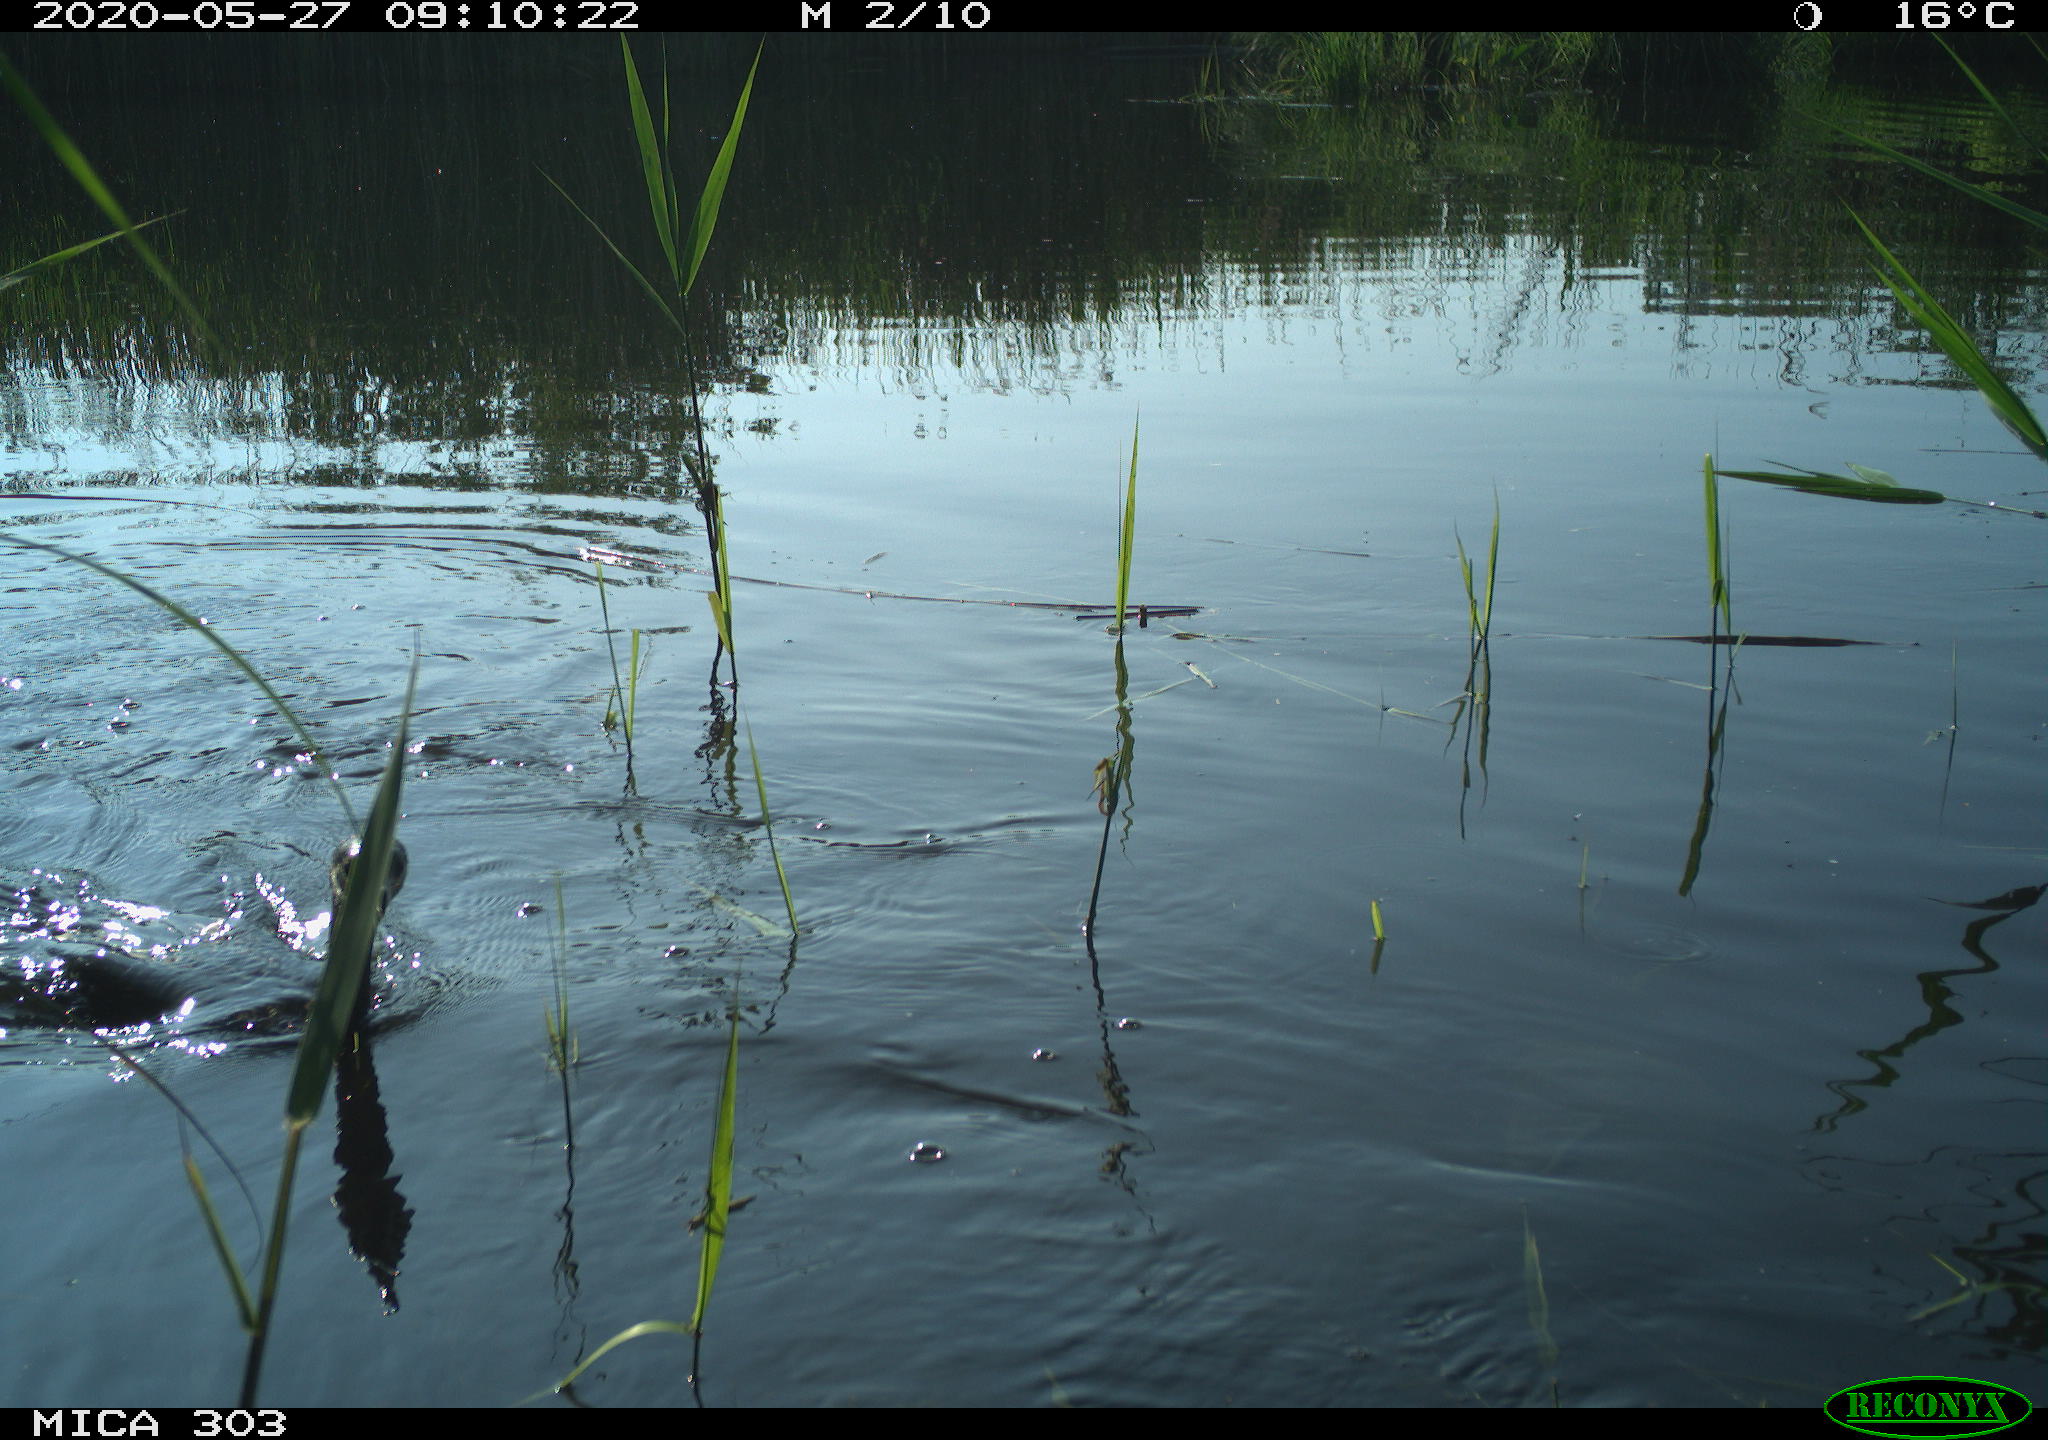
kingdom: Animalia
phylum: Chordata
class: Aves
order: Suliformes
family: Phalacrocoracidae
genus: Phalacrocorax
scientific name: Phalacrocorax carbo
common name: Great cormorant
